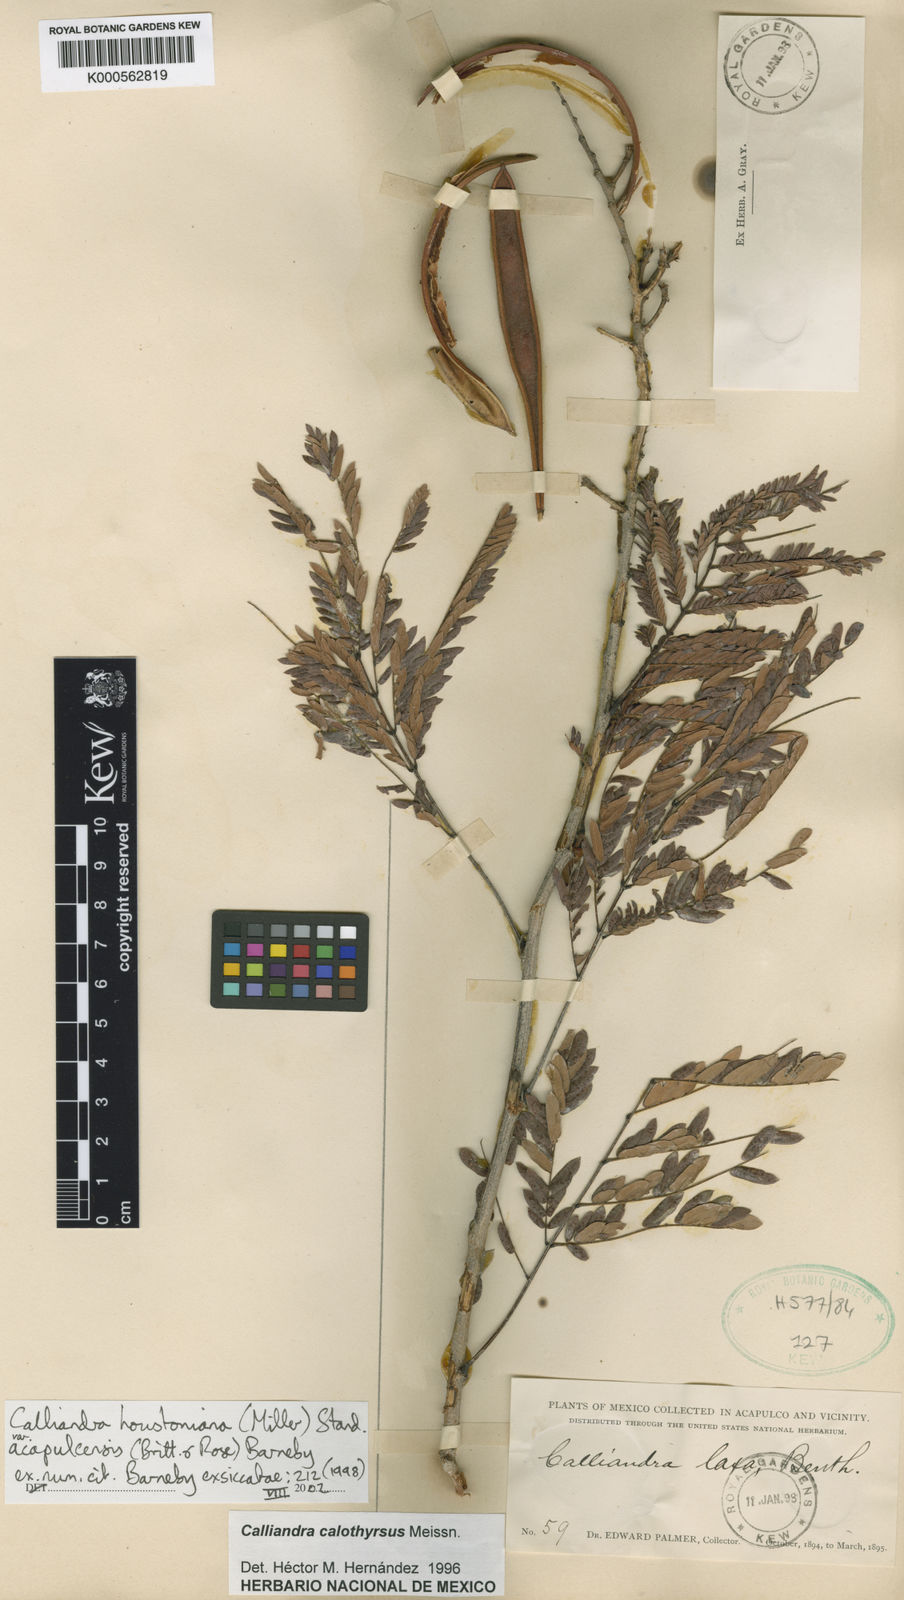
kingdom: Plantae
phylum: Tracheophyta
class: Magnoliopsida
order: Fabales
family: Fabaceae
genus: Calliandra
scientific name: Calliandra houstoniana
